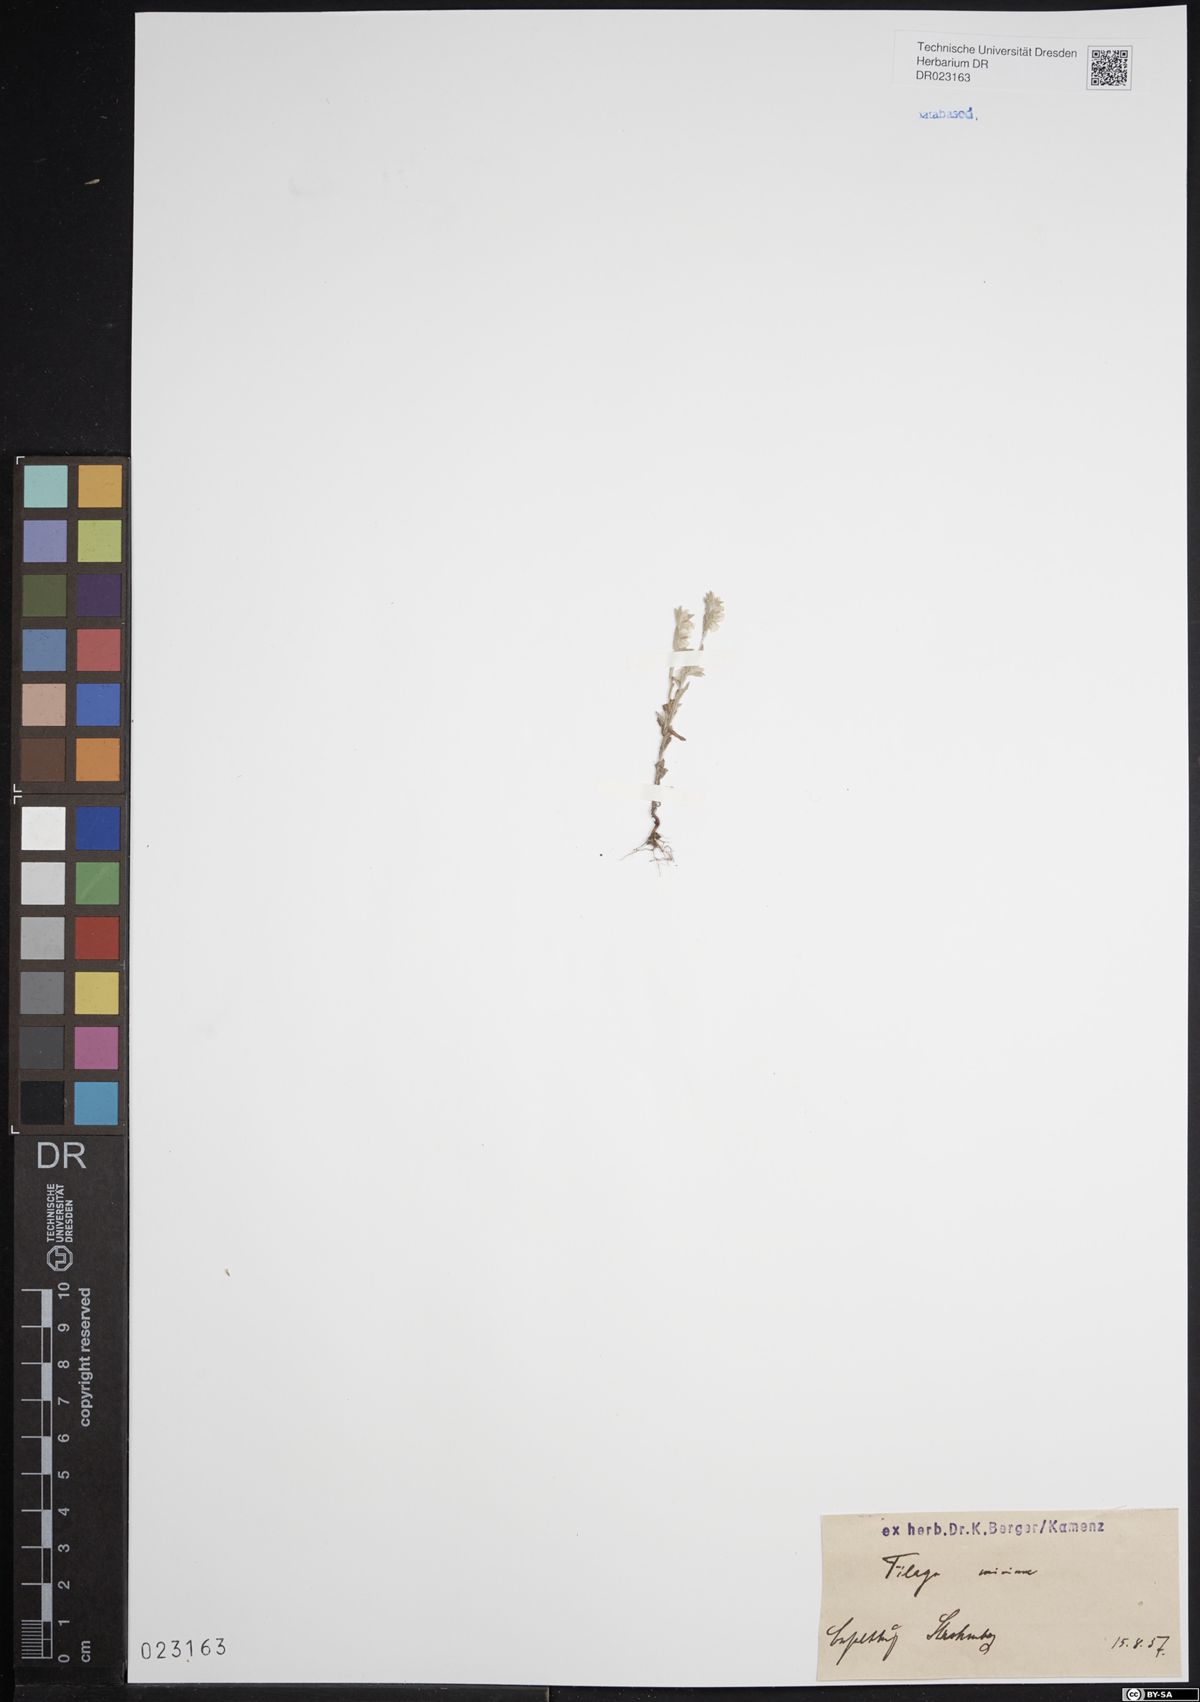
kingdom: Plantae
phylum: Tracheophyta
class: Magnoliopsida
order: Asterales
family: Asteraceae
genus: Logfia
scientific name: Logfia minima
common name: Little cottonrose
